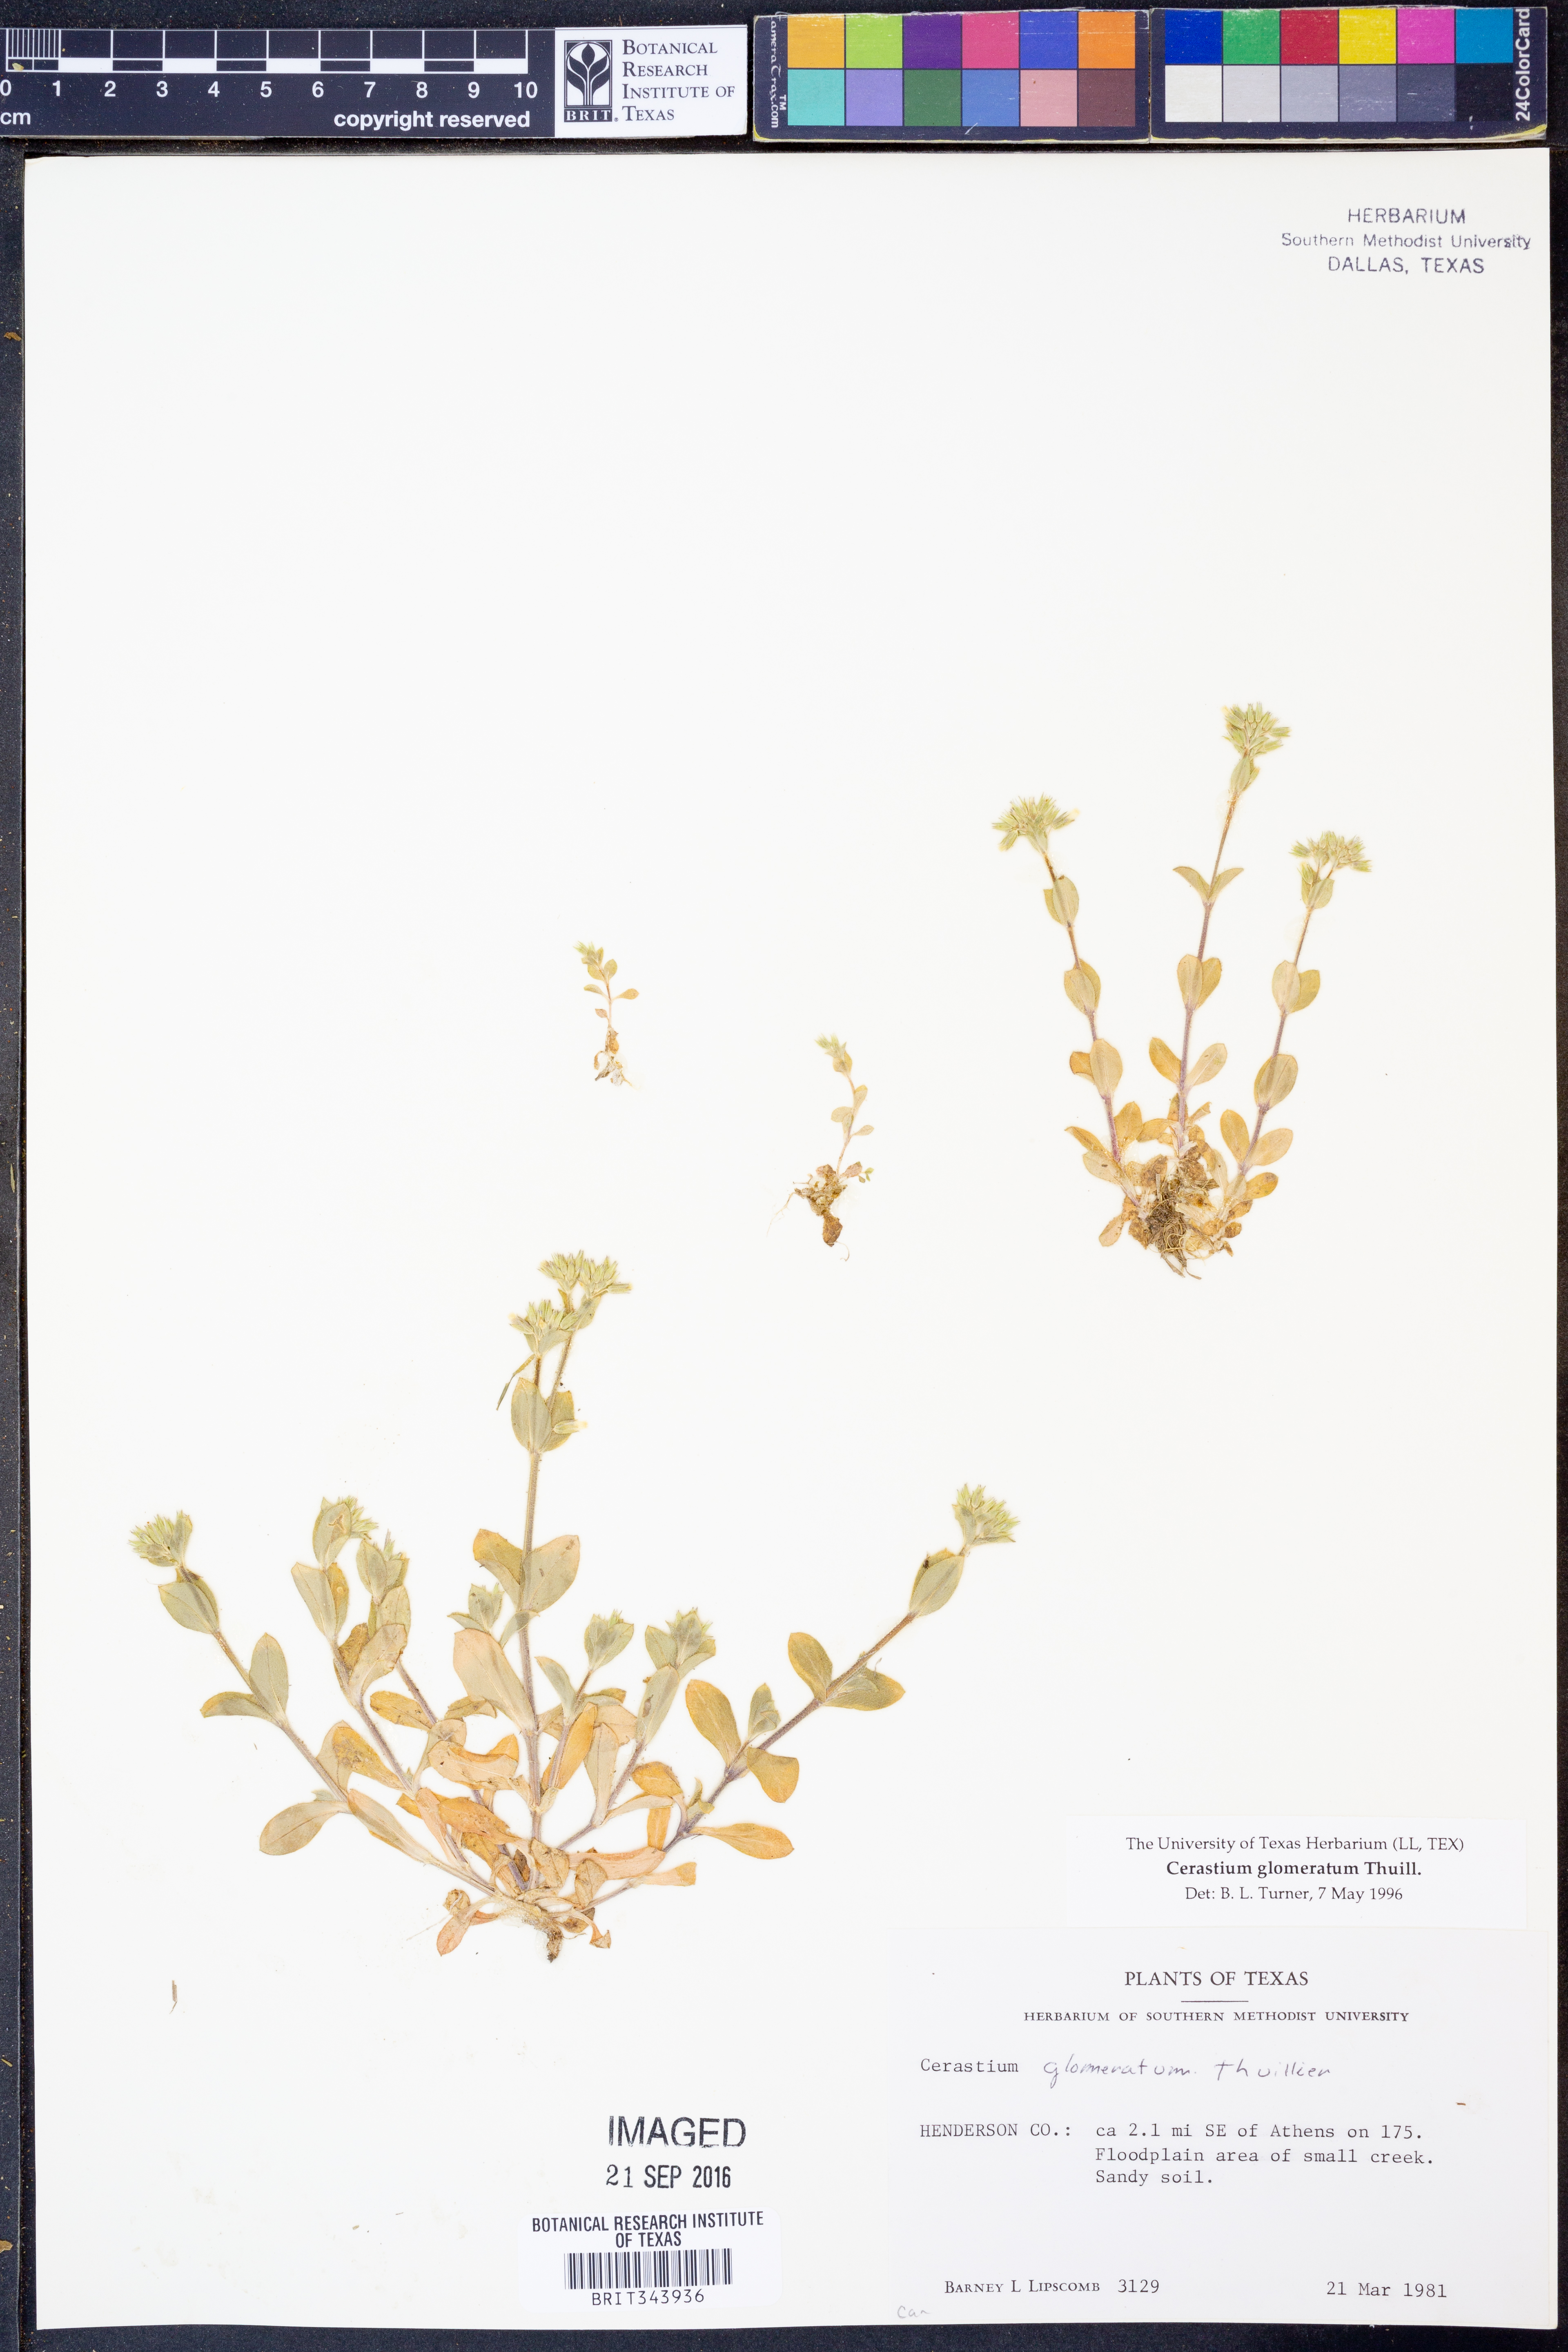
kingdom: Plantae
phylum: Tracheophyta
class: Magnoliopsida
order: Caryophyllales
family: Caryophyllaceae
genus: Cerastium
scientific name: Cerastium glomeratum
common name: Sticky chickweed
